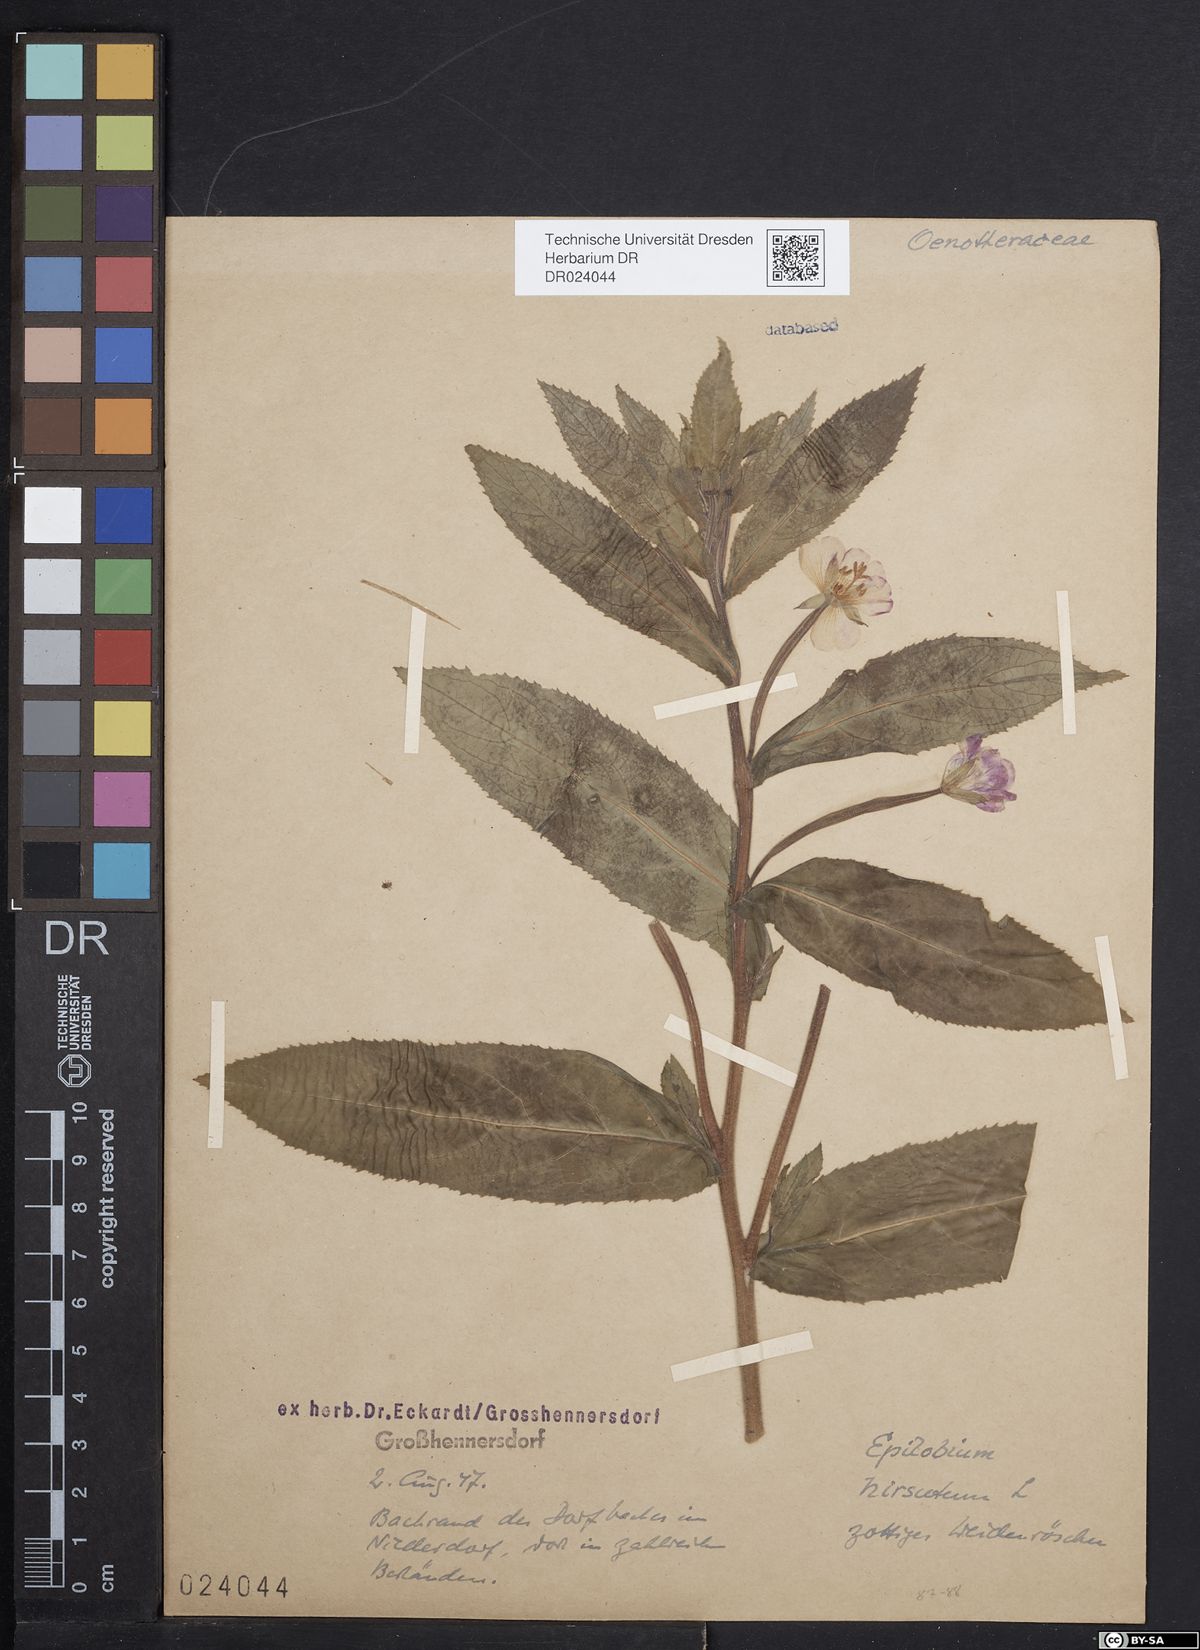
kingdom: Plantae
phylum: Tracheophyta
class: Magnoliopsida
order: Myrtales
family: Onagraceae
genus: Epilobium
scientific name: Epilobium hirsutum
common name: Great willowherb
